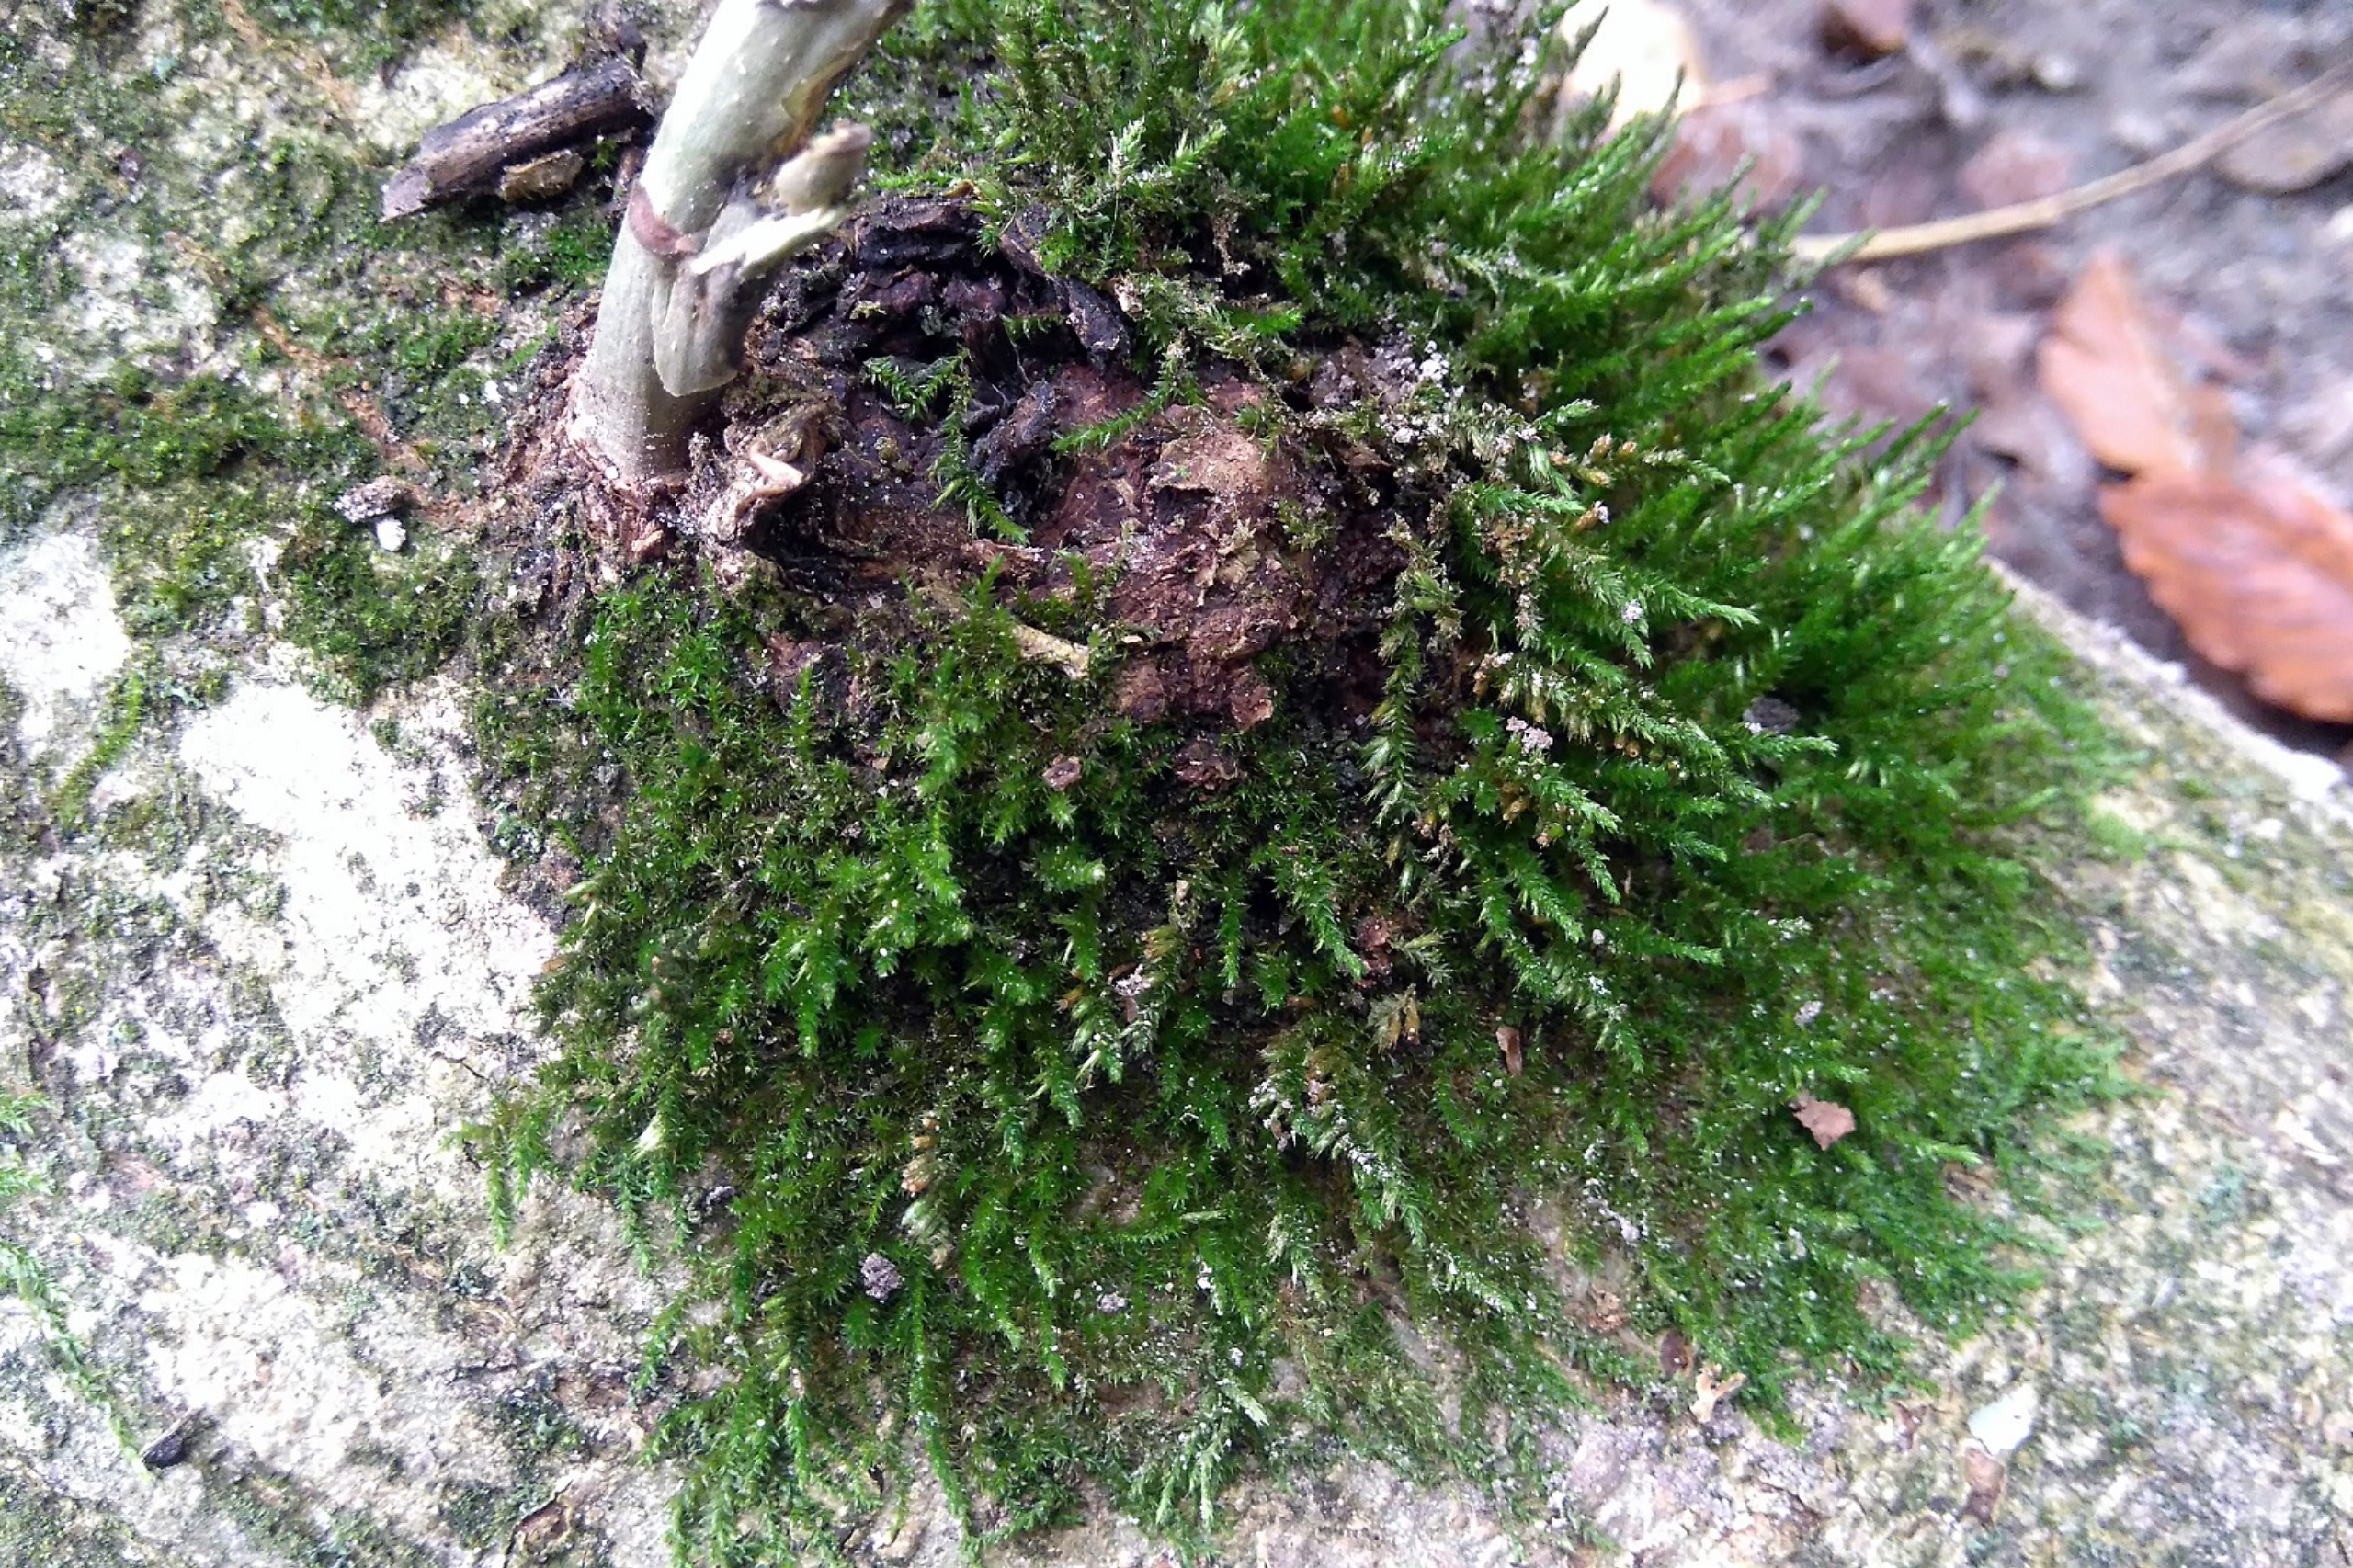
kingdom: Plantae
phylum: Bryophyta
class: Bryopsida
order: Hypnales
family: Cryphaeaceae
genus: Cryphaea
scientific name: Cryphaea heteromalla
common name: Bark-dækmos
